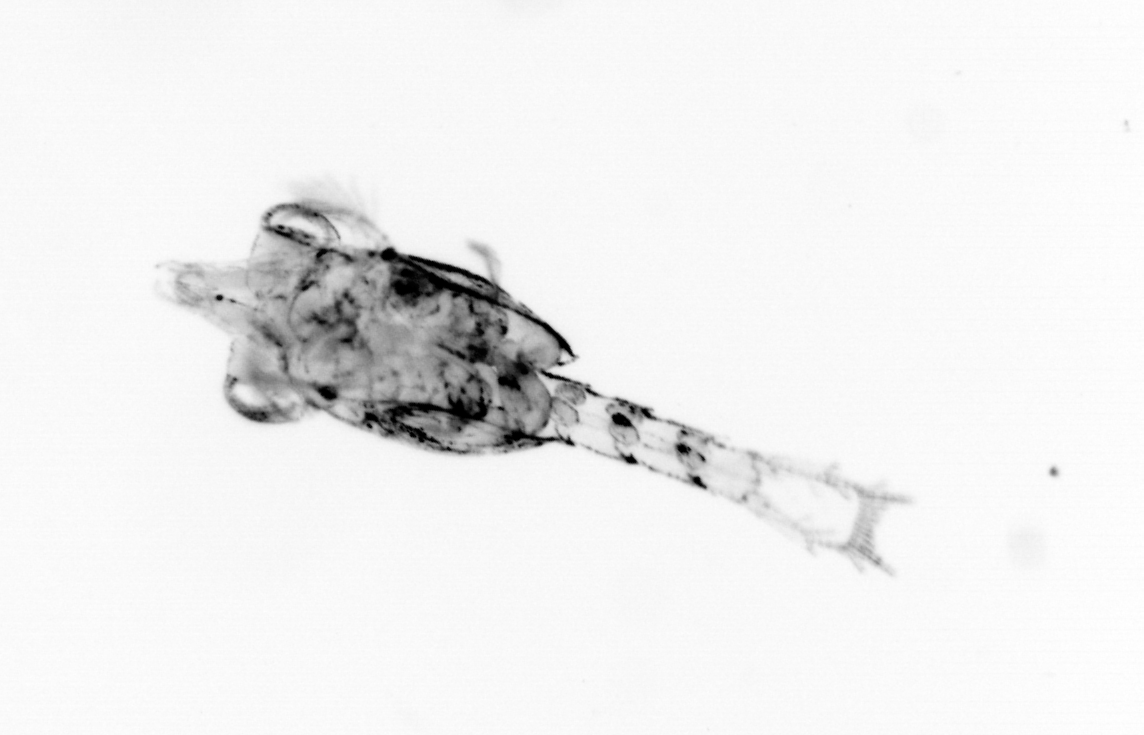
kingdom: Animalia
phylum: Arthropoda
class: Malacostraca
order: Decapoda
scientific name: Decapoda
